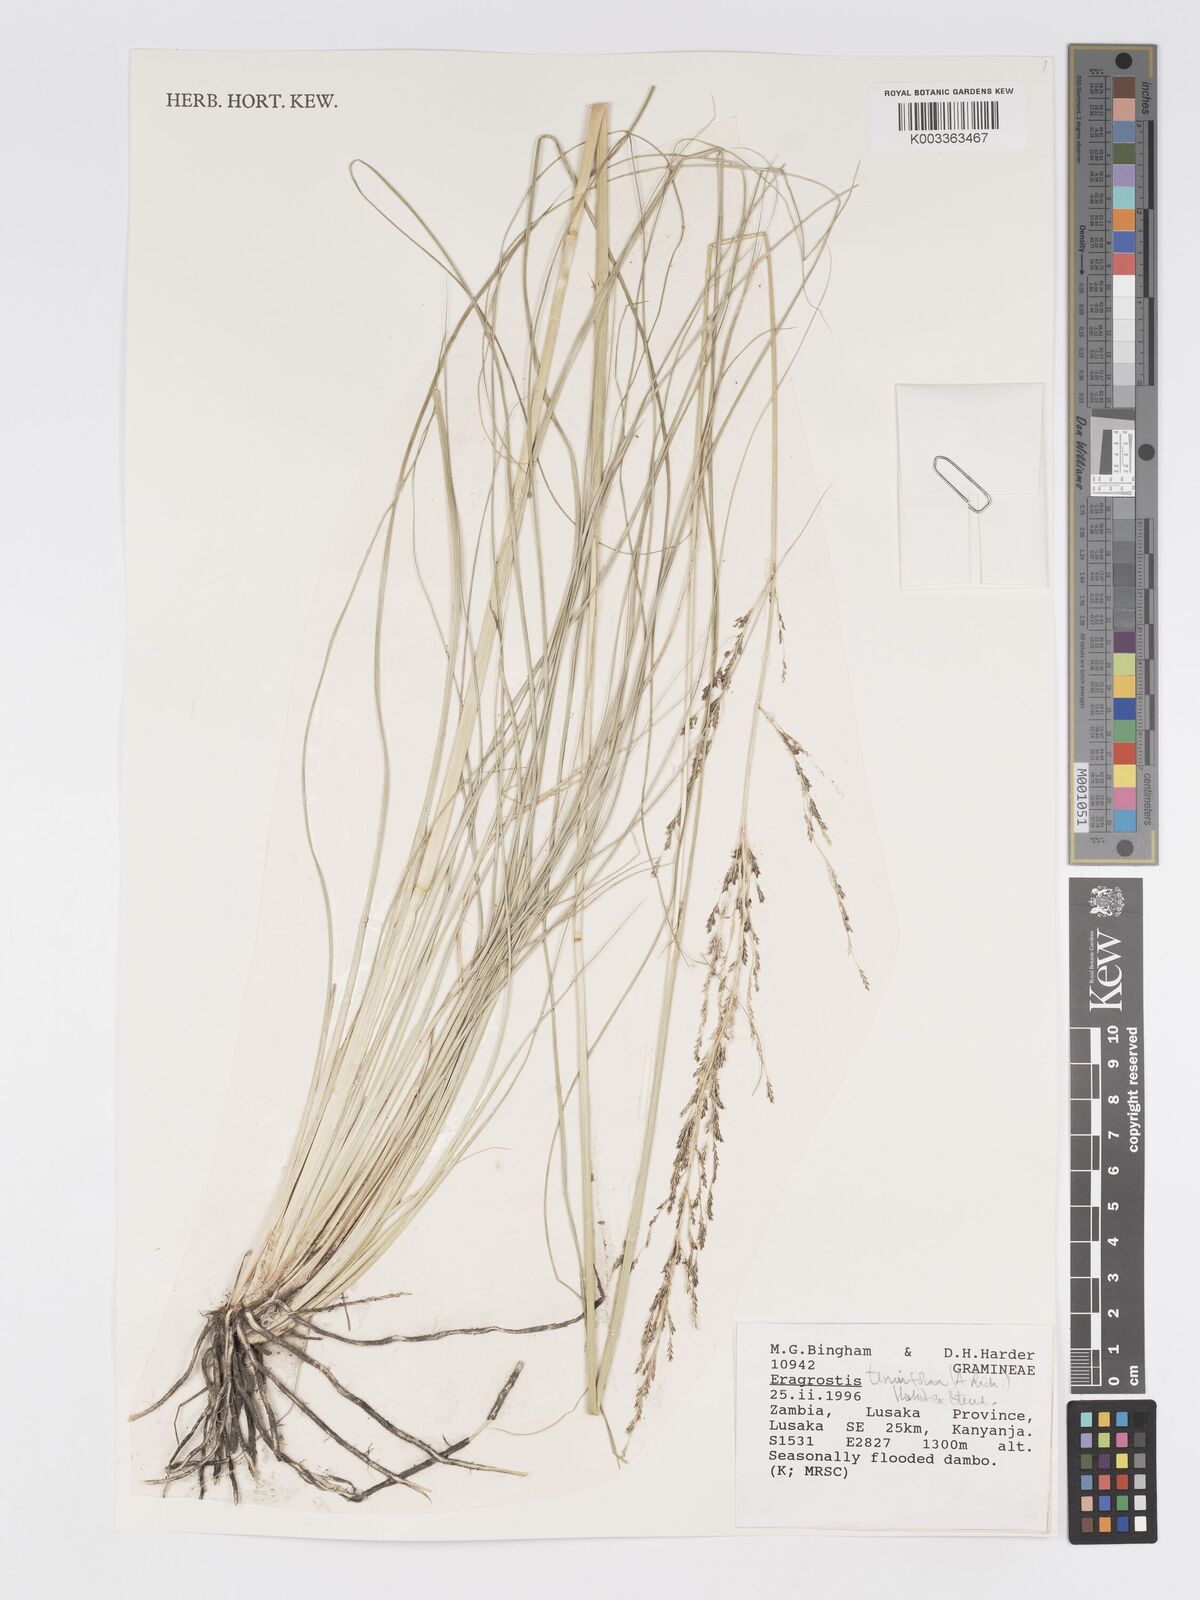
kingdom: Plantae
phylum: Tracheophyta
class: Liliopsida
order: Poales
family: Poaceae
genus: Eragrostis
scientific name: Eragrostis tenuifolia
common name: Elastic grass
